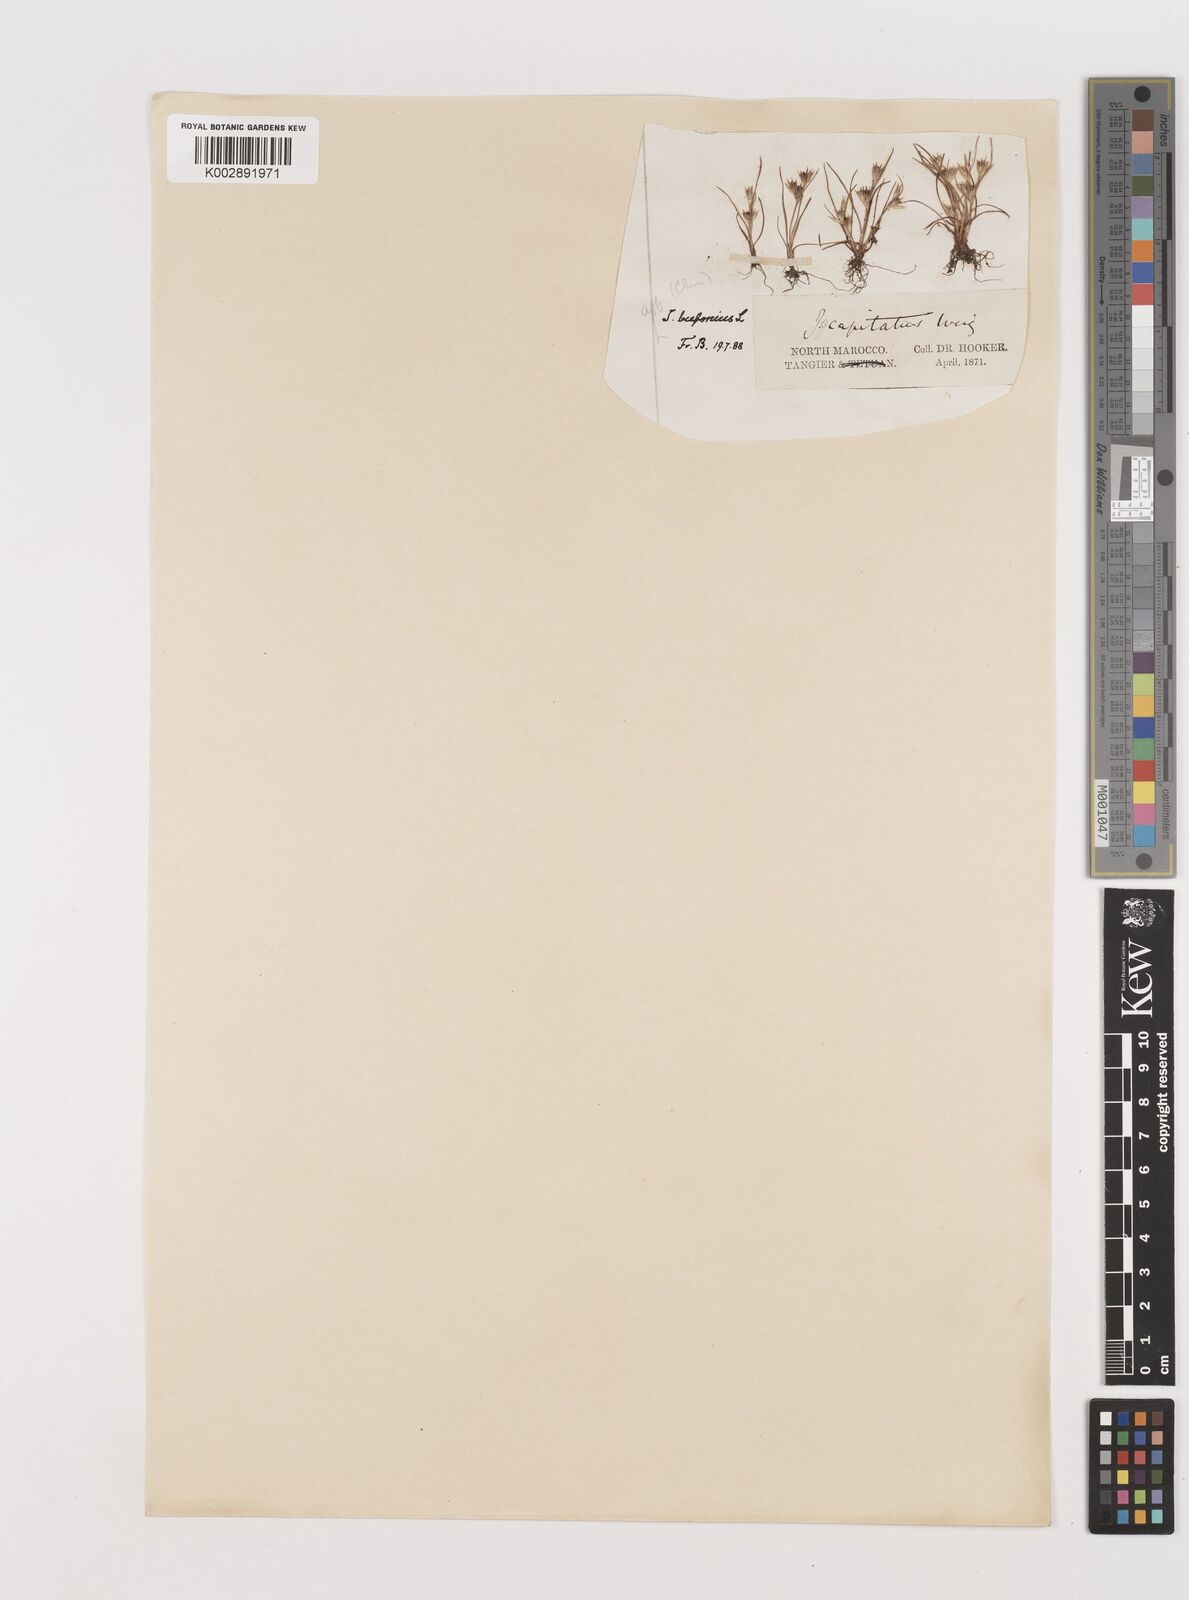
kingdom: Plantae
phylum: Tracheophyta
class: Liliopsida
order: Poales
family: Juncaceae
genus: Juncus
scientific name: Juncus bufonius
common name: Toad rush
